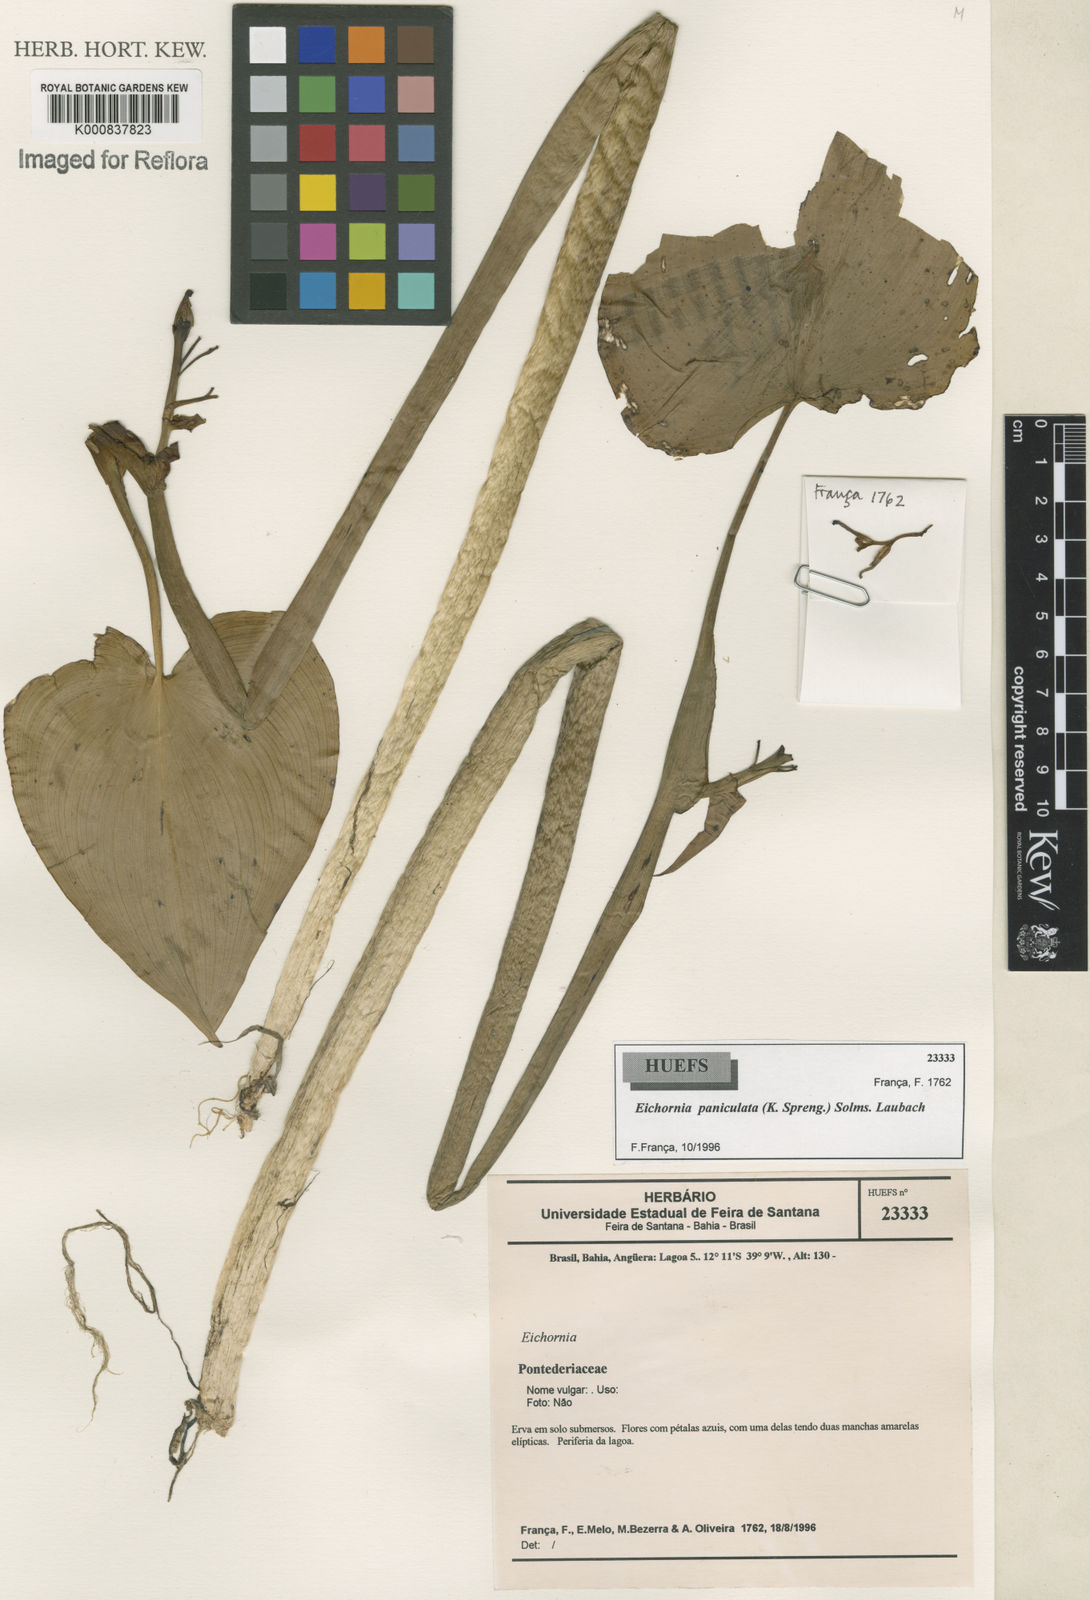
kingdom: Plantae
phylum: Tracheophyta
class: Liliopsida
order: Commelinales
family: Pontederiaceae
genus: Pontederia
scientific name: Pontederia paniculata
